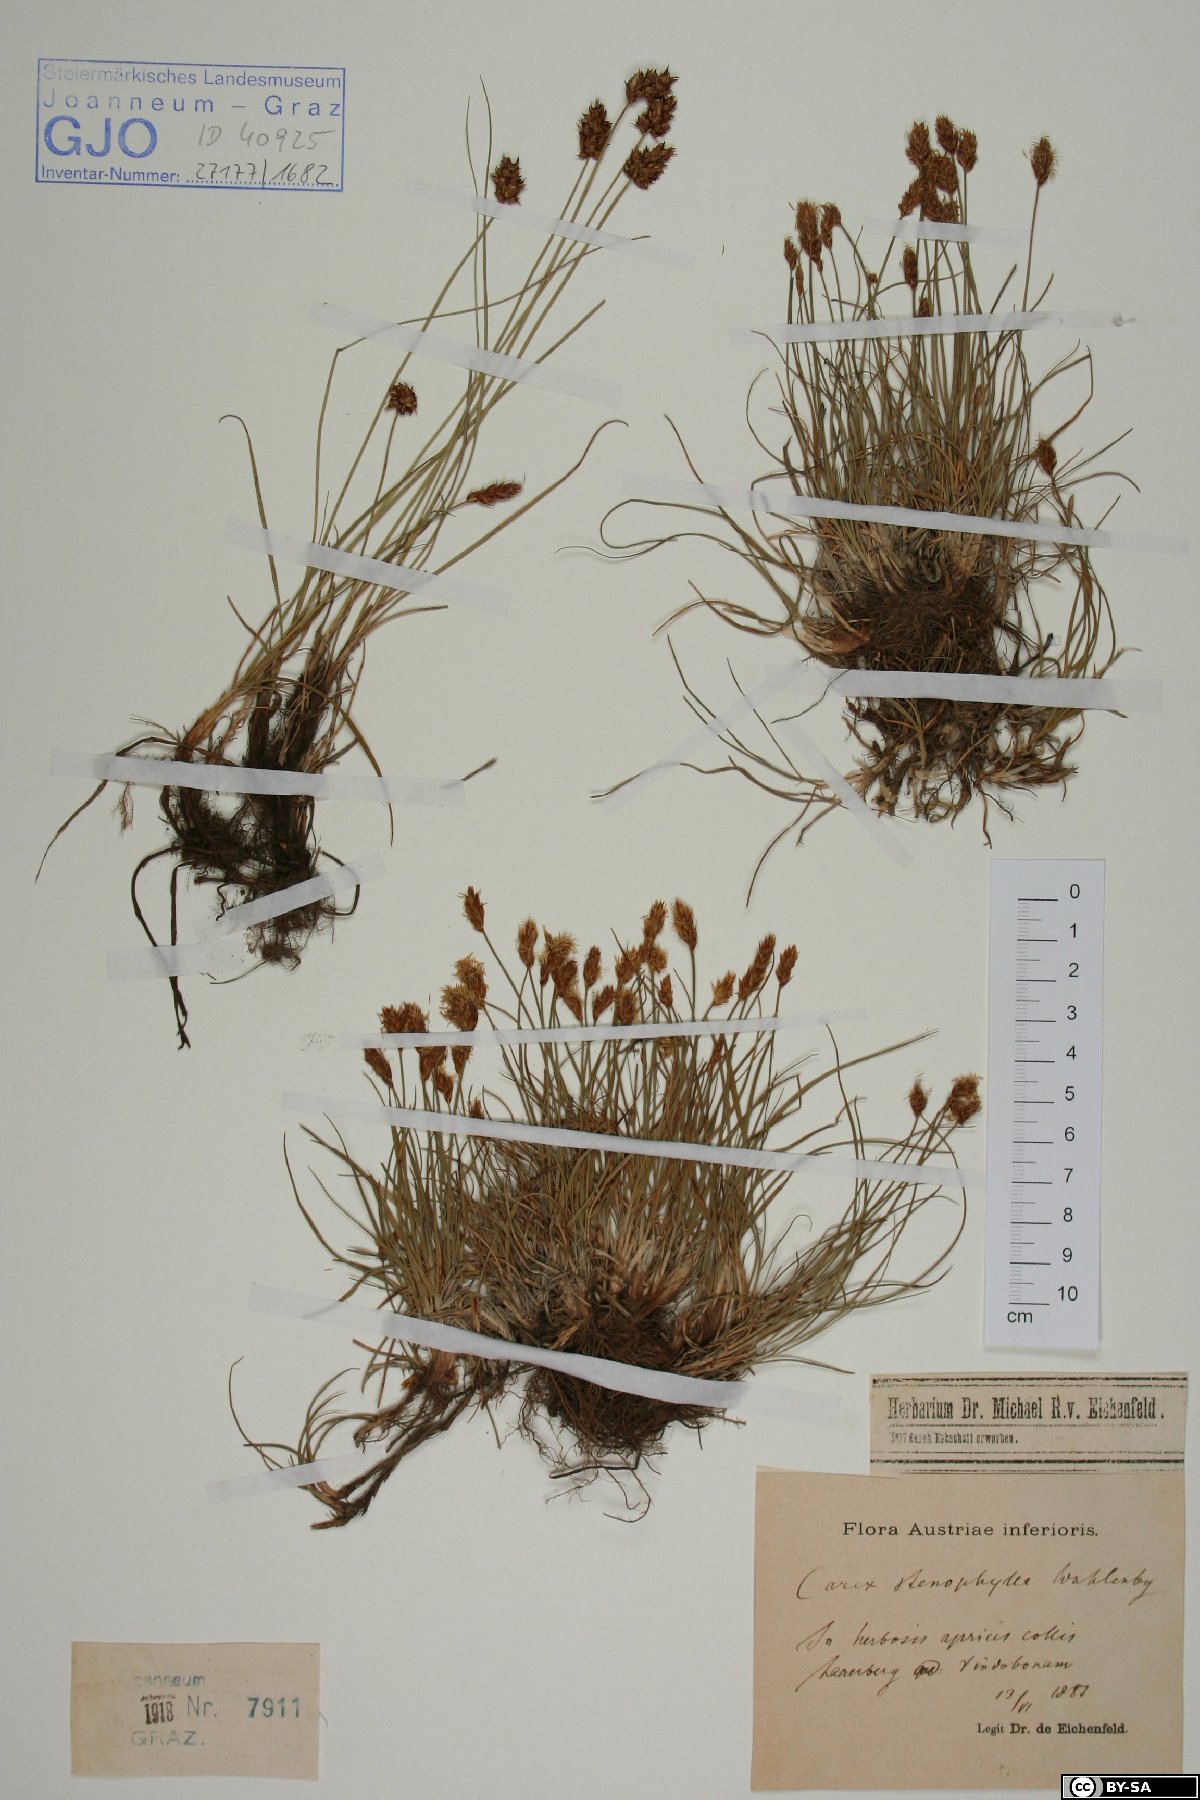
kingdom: Plantae
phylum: Tracheophyta
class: Liliopsida
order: Poales
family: Cyperaceae
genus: Carex
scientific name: Carex stenophylla
